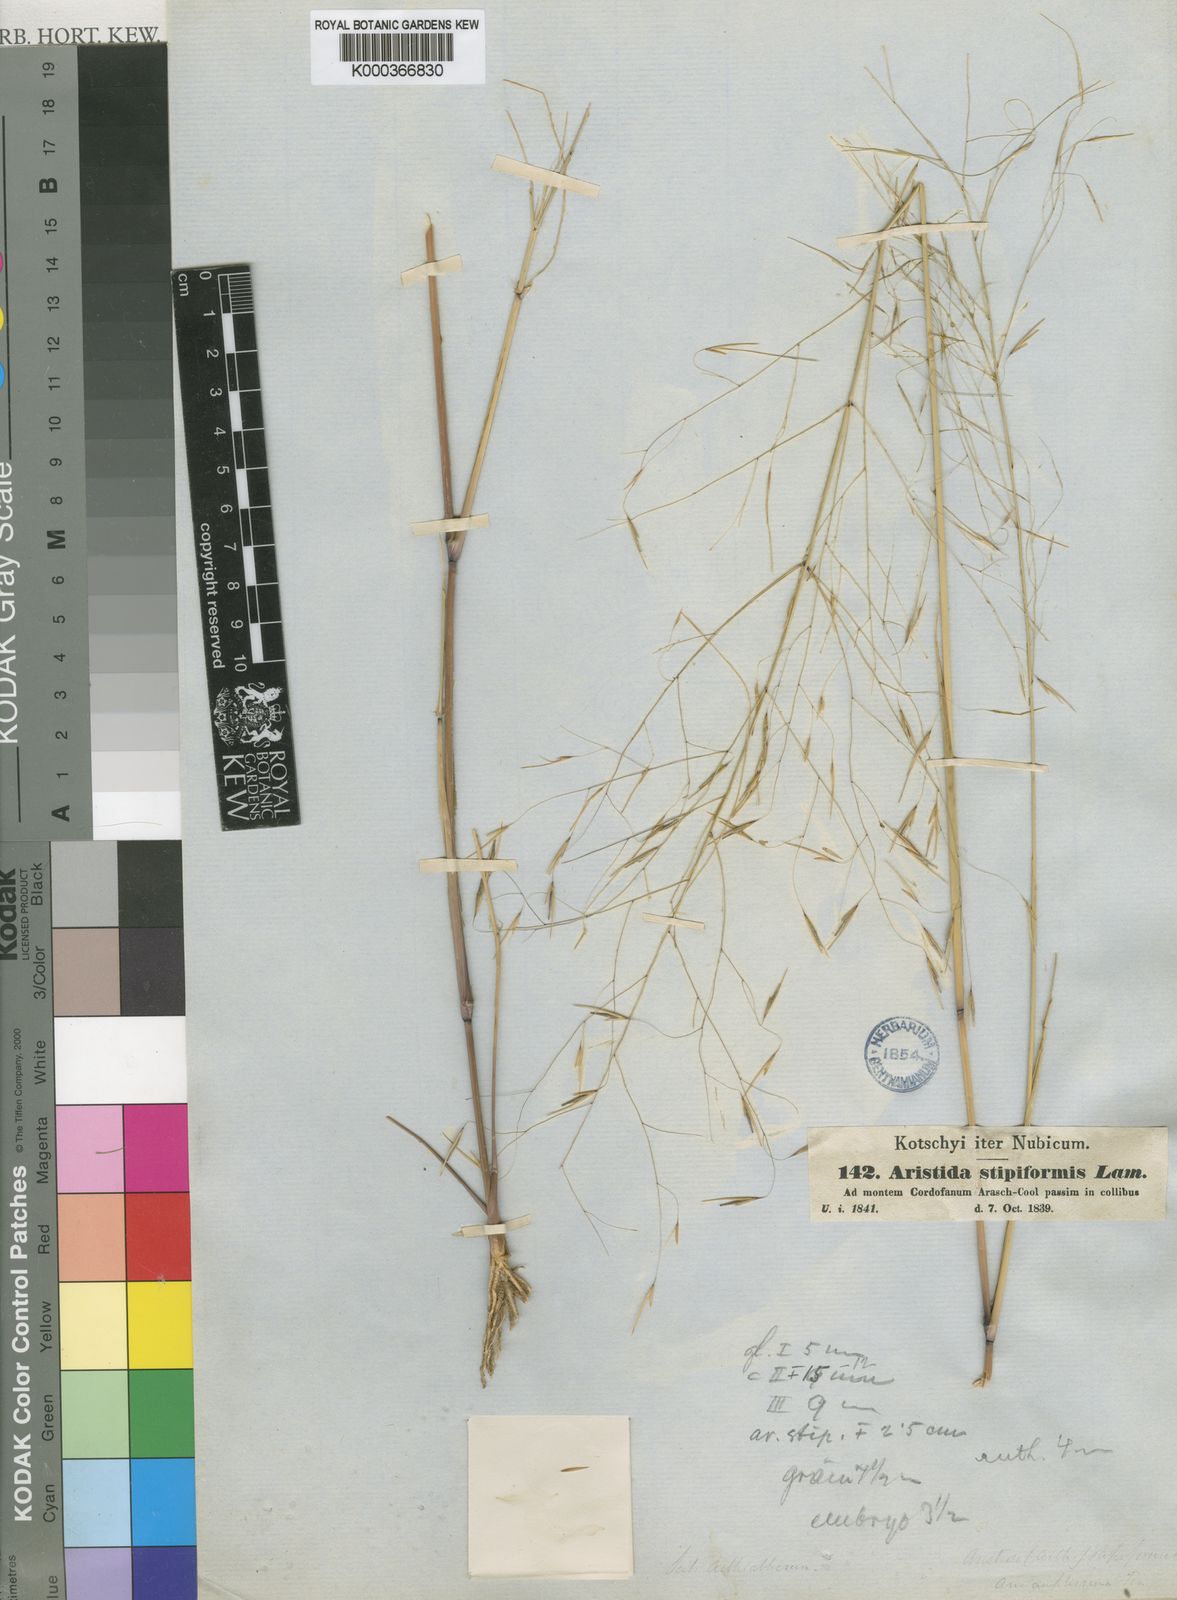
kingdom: Plantae
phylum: Tracheophyta
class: Liliopsida
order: Poales
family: Poaceae
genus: Aristida
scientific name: Aristida stipoides
